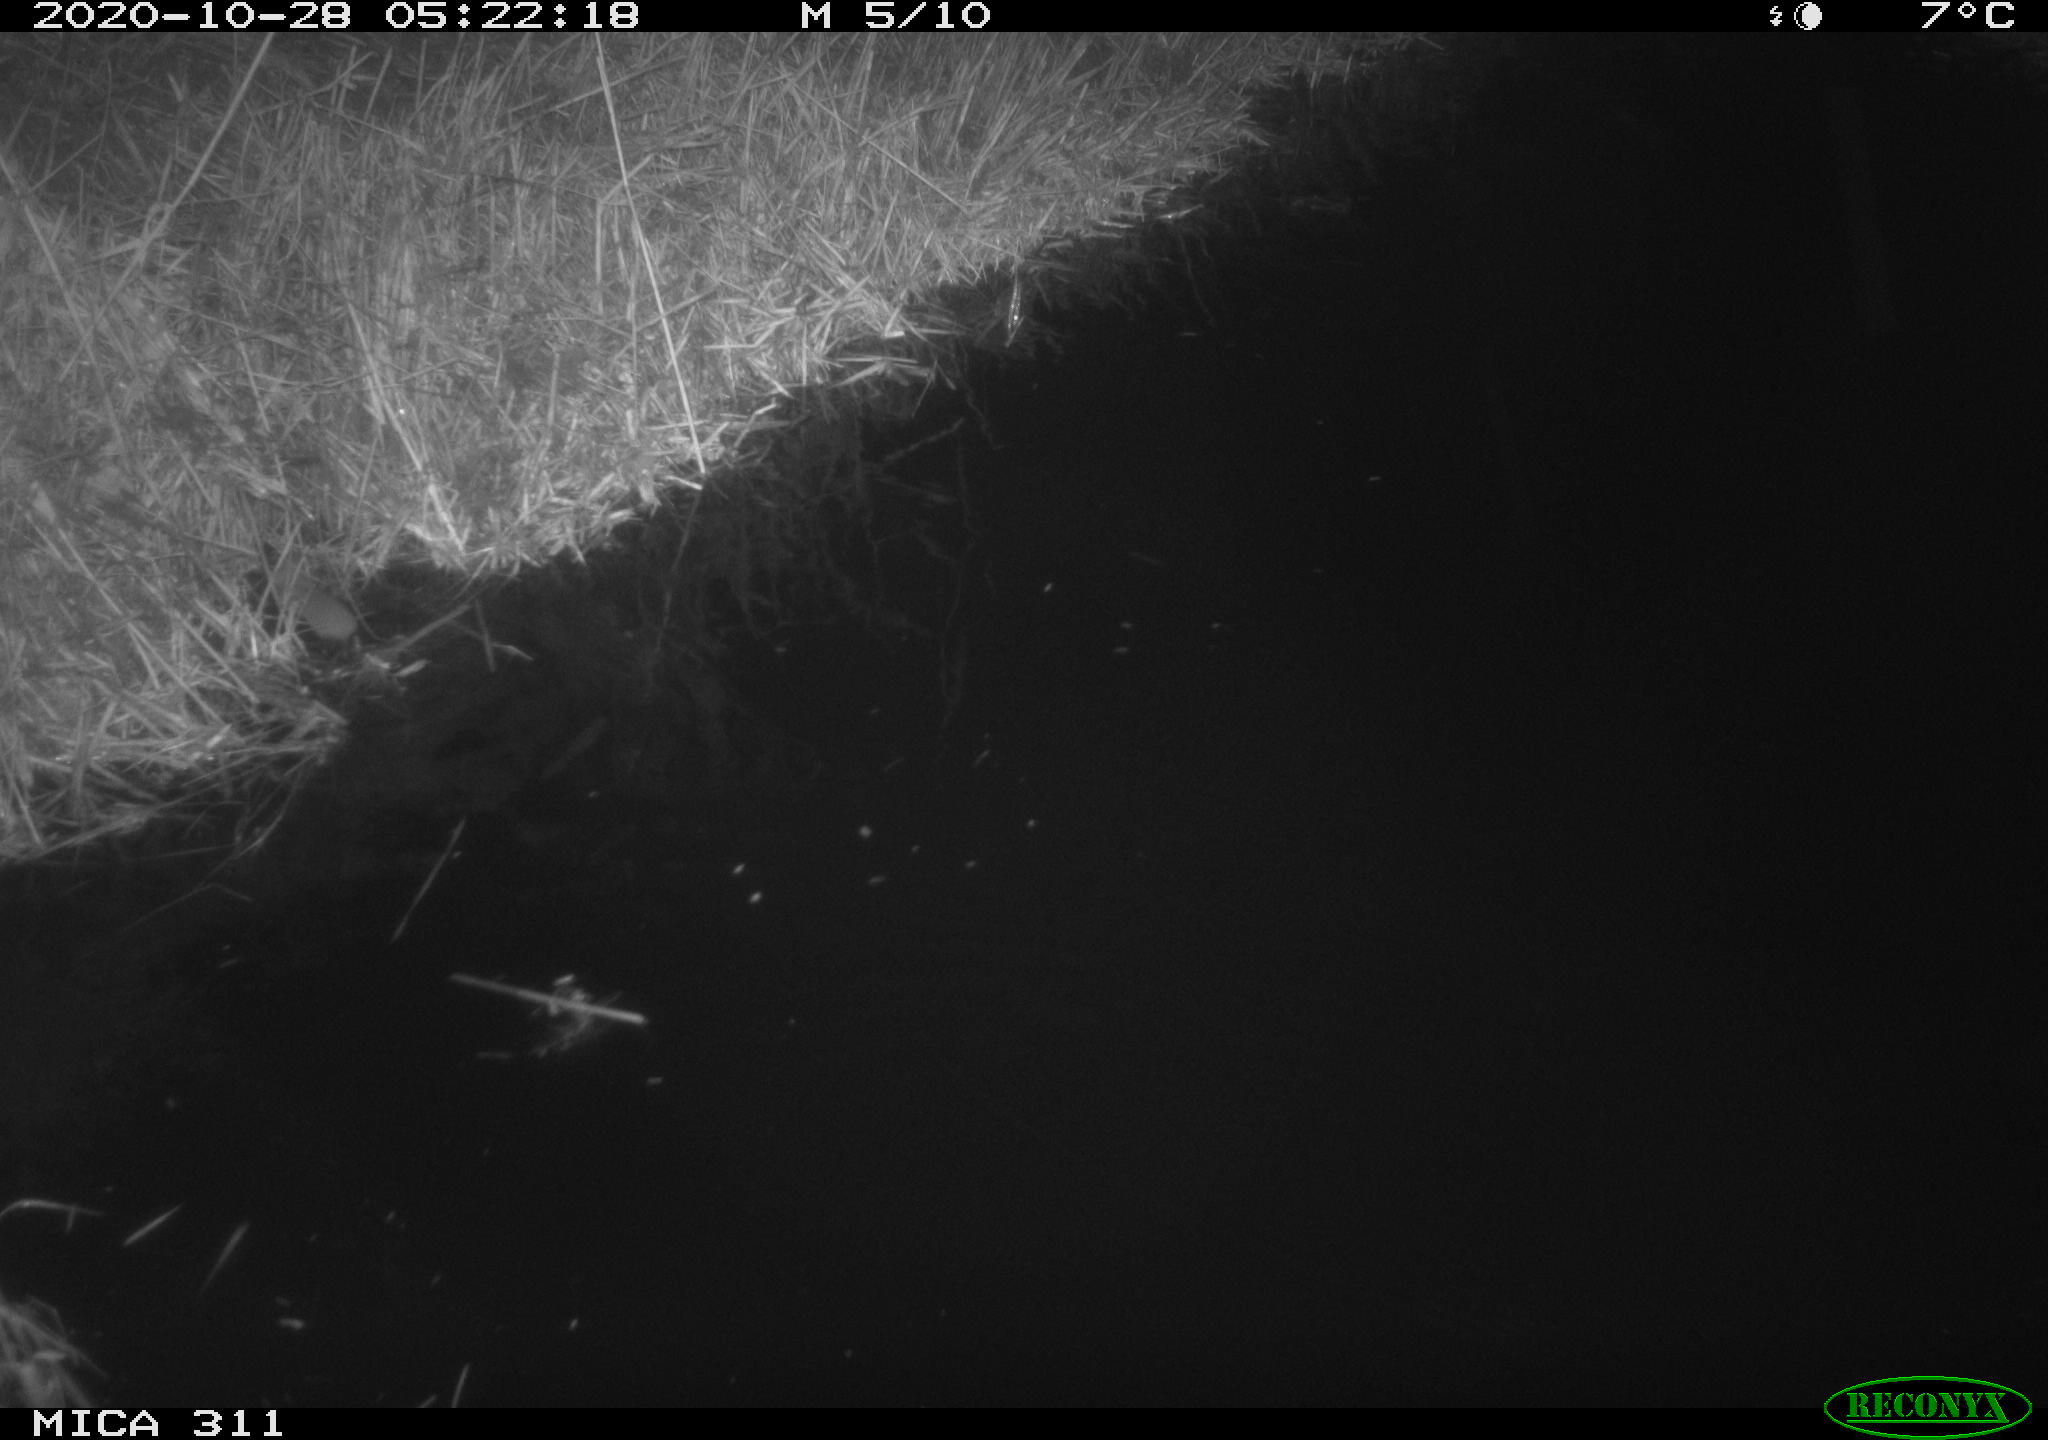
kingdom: Animalia
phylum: Chordata
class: Mammalia
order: Rodentia
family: Muridae
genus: Rattus
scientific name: Rattus norvegicus
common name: Brown rat
